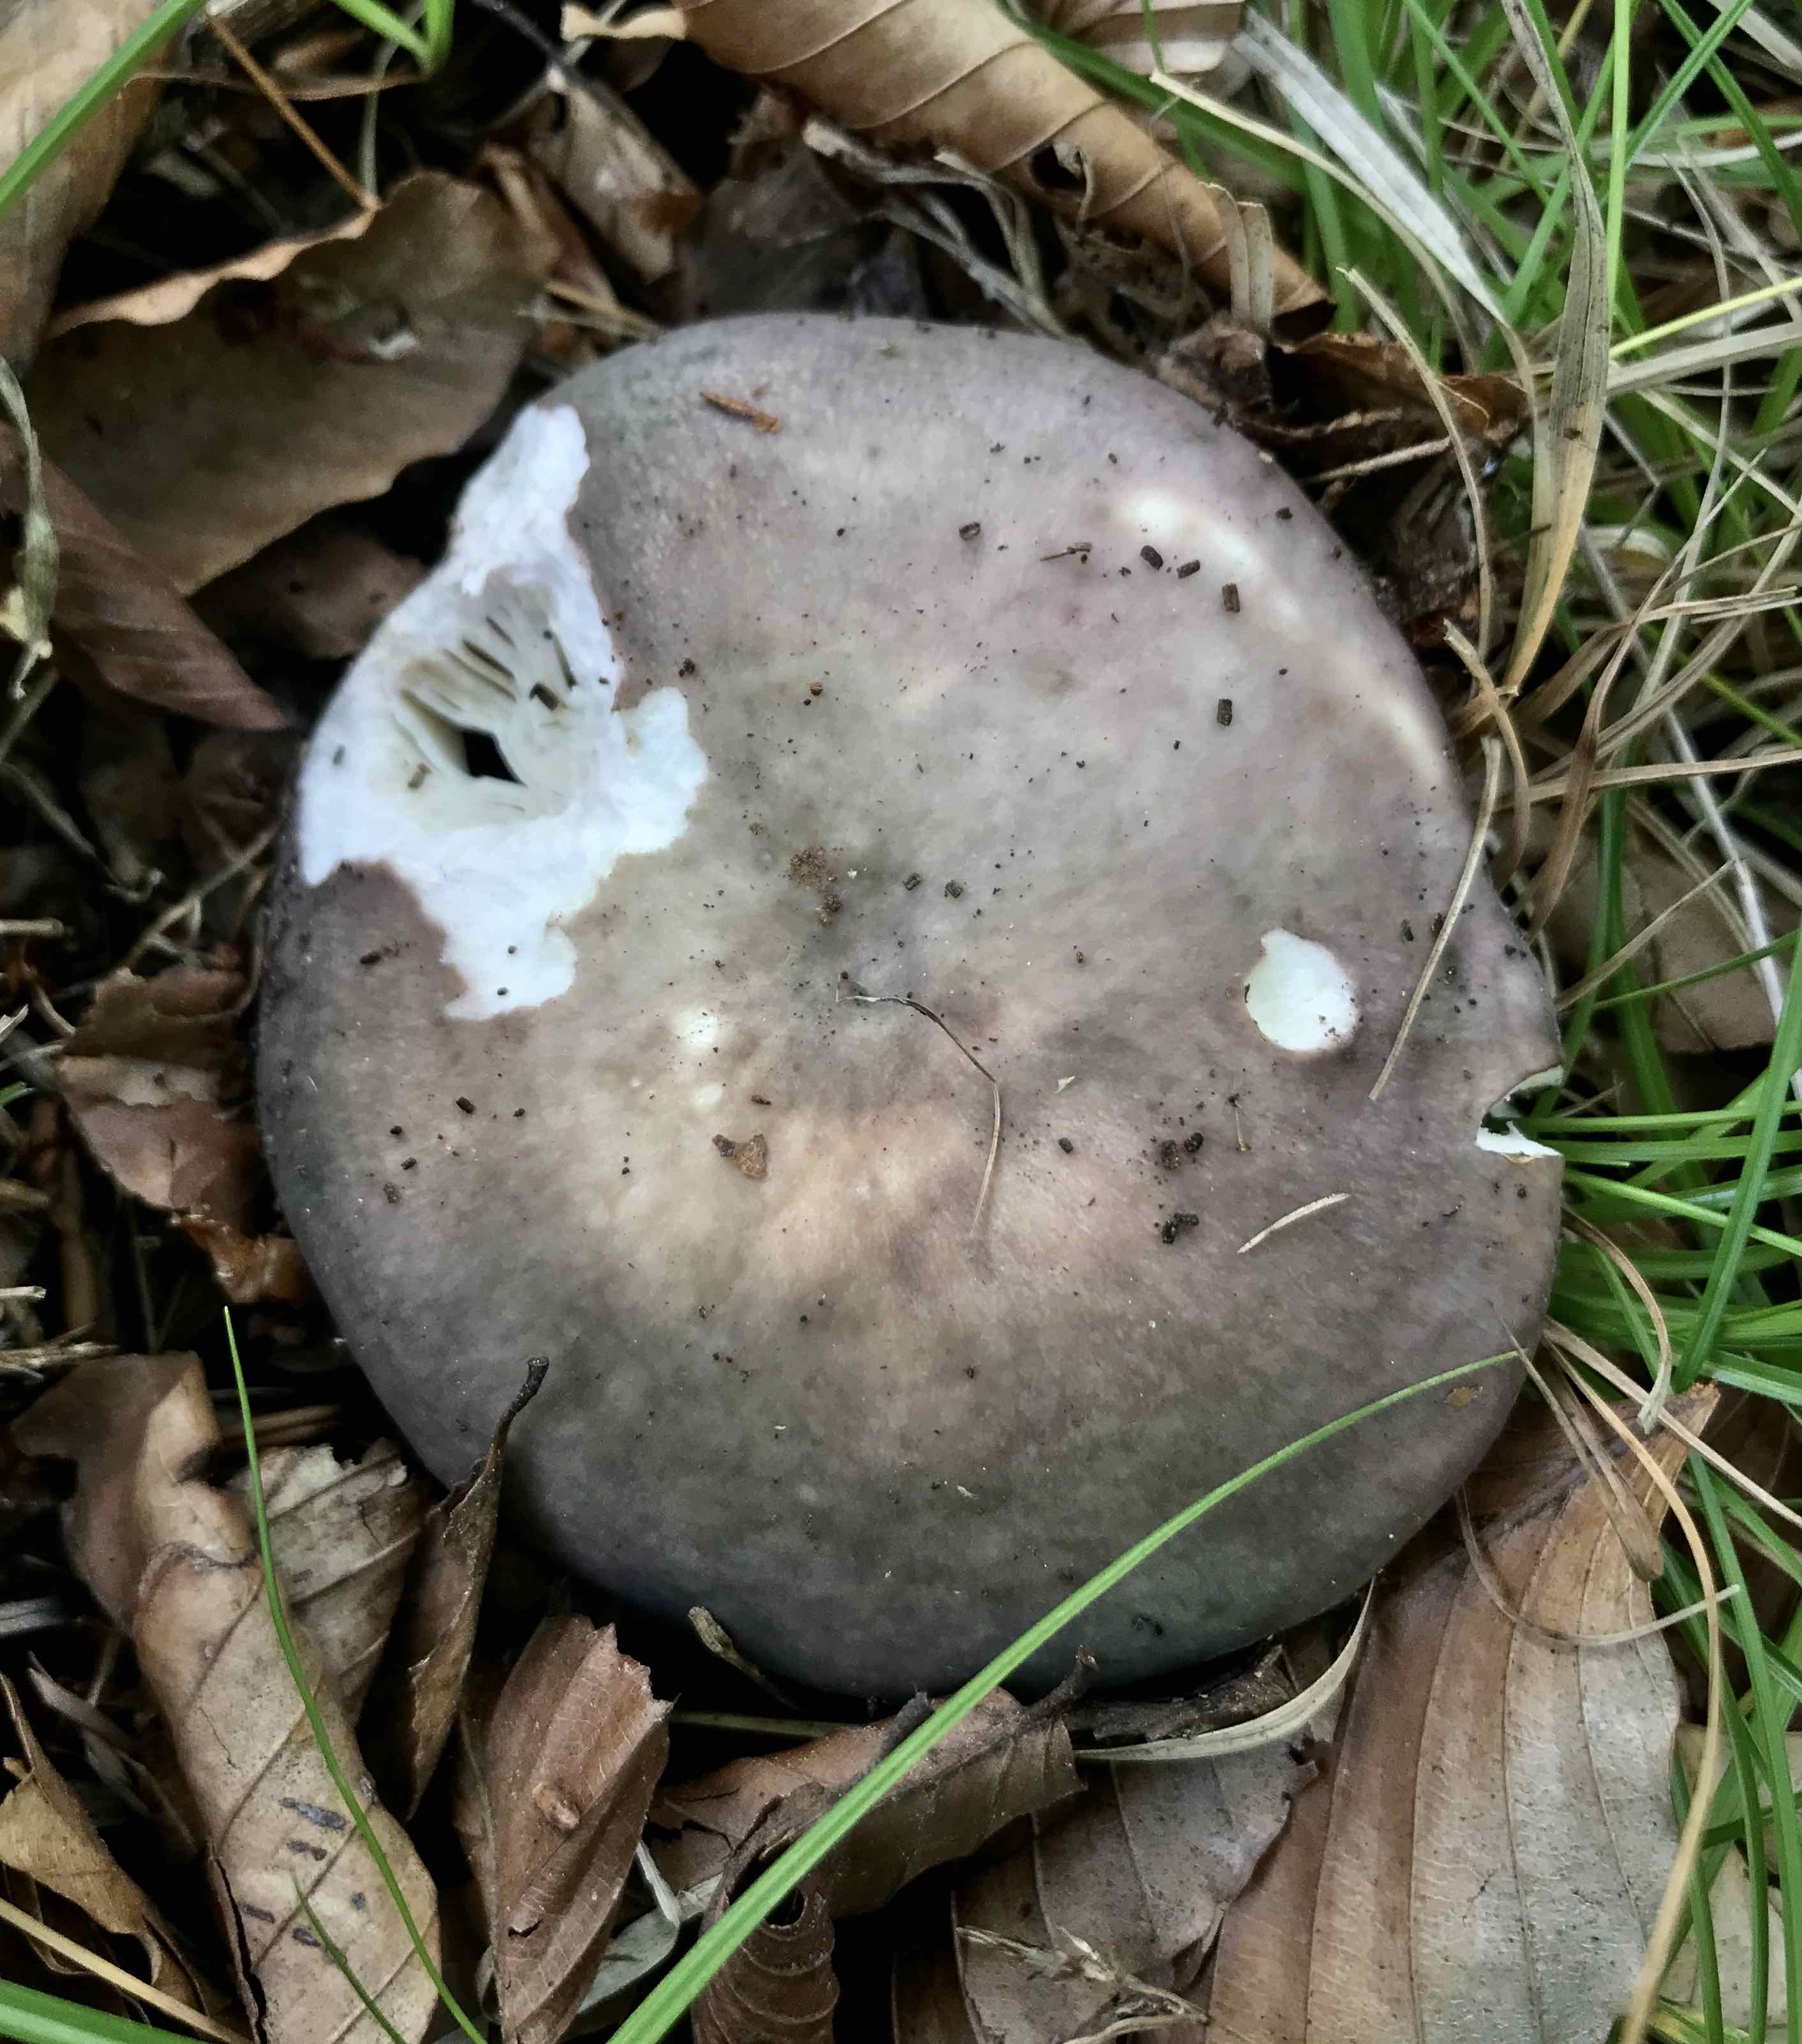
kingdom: Fungi
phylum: Basidiomycota
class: Agaricomycetes
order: Russulales
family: Russulaceae
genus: Russula
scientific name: Russula cyanoxantha
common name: broget skørhat
